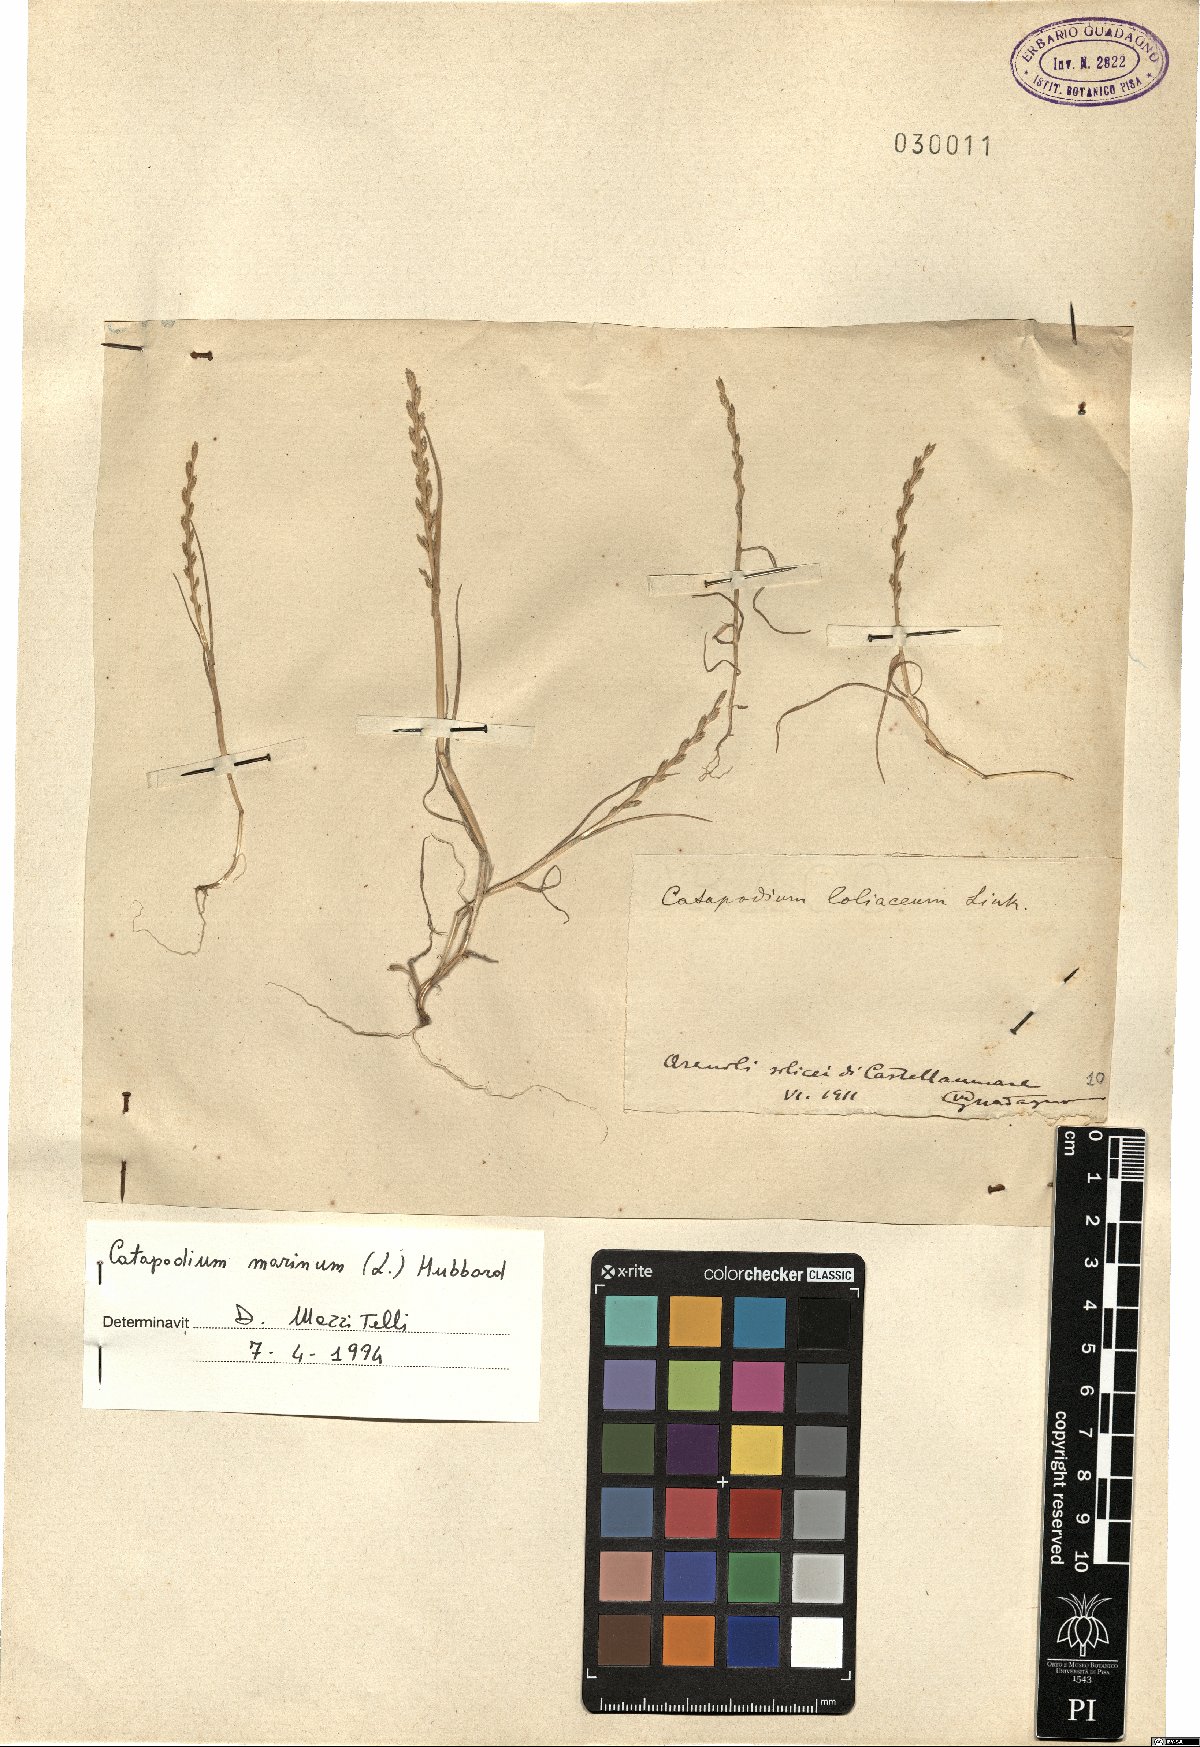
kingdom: Plantae
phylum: Tracheophyta
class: Liliopsida
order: Poales
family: Poaceae
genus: Catapodium
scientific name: Catapodium marinum
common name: Sea fern-grass
